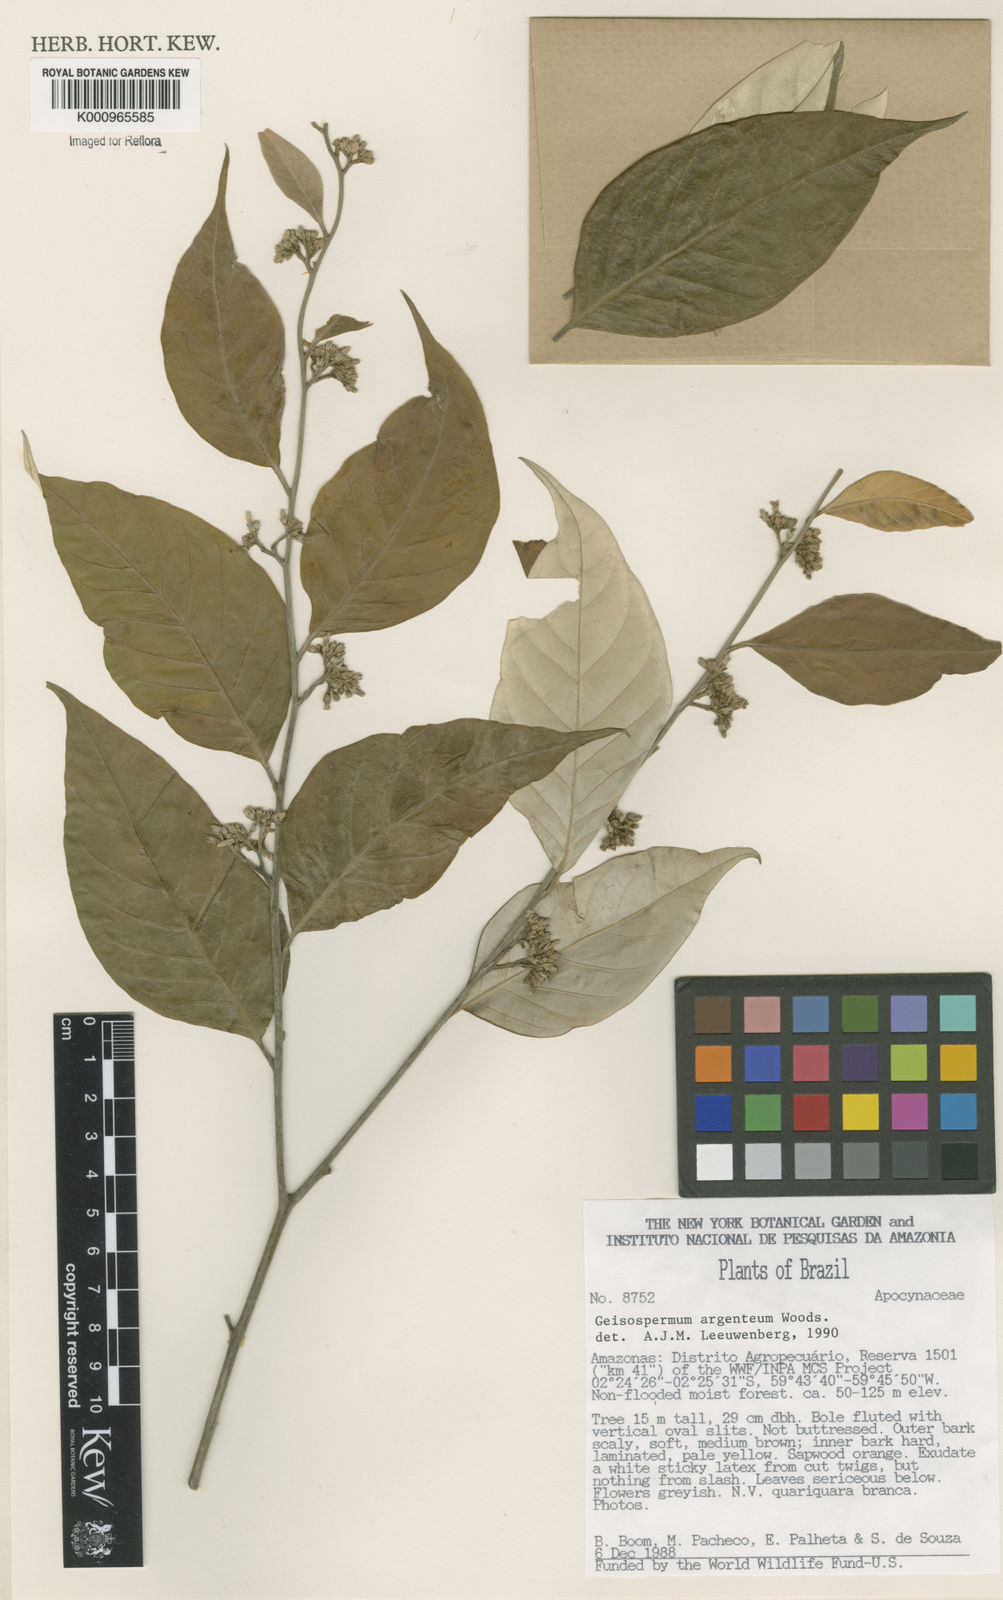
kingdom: Plantae
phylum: Tracheophyta
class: Magnoliopsida
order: Gentianales
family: Apocynaceae
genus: Geissospermum
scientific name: Geissospermum argenteum
